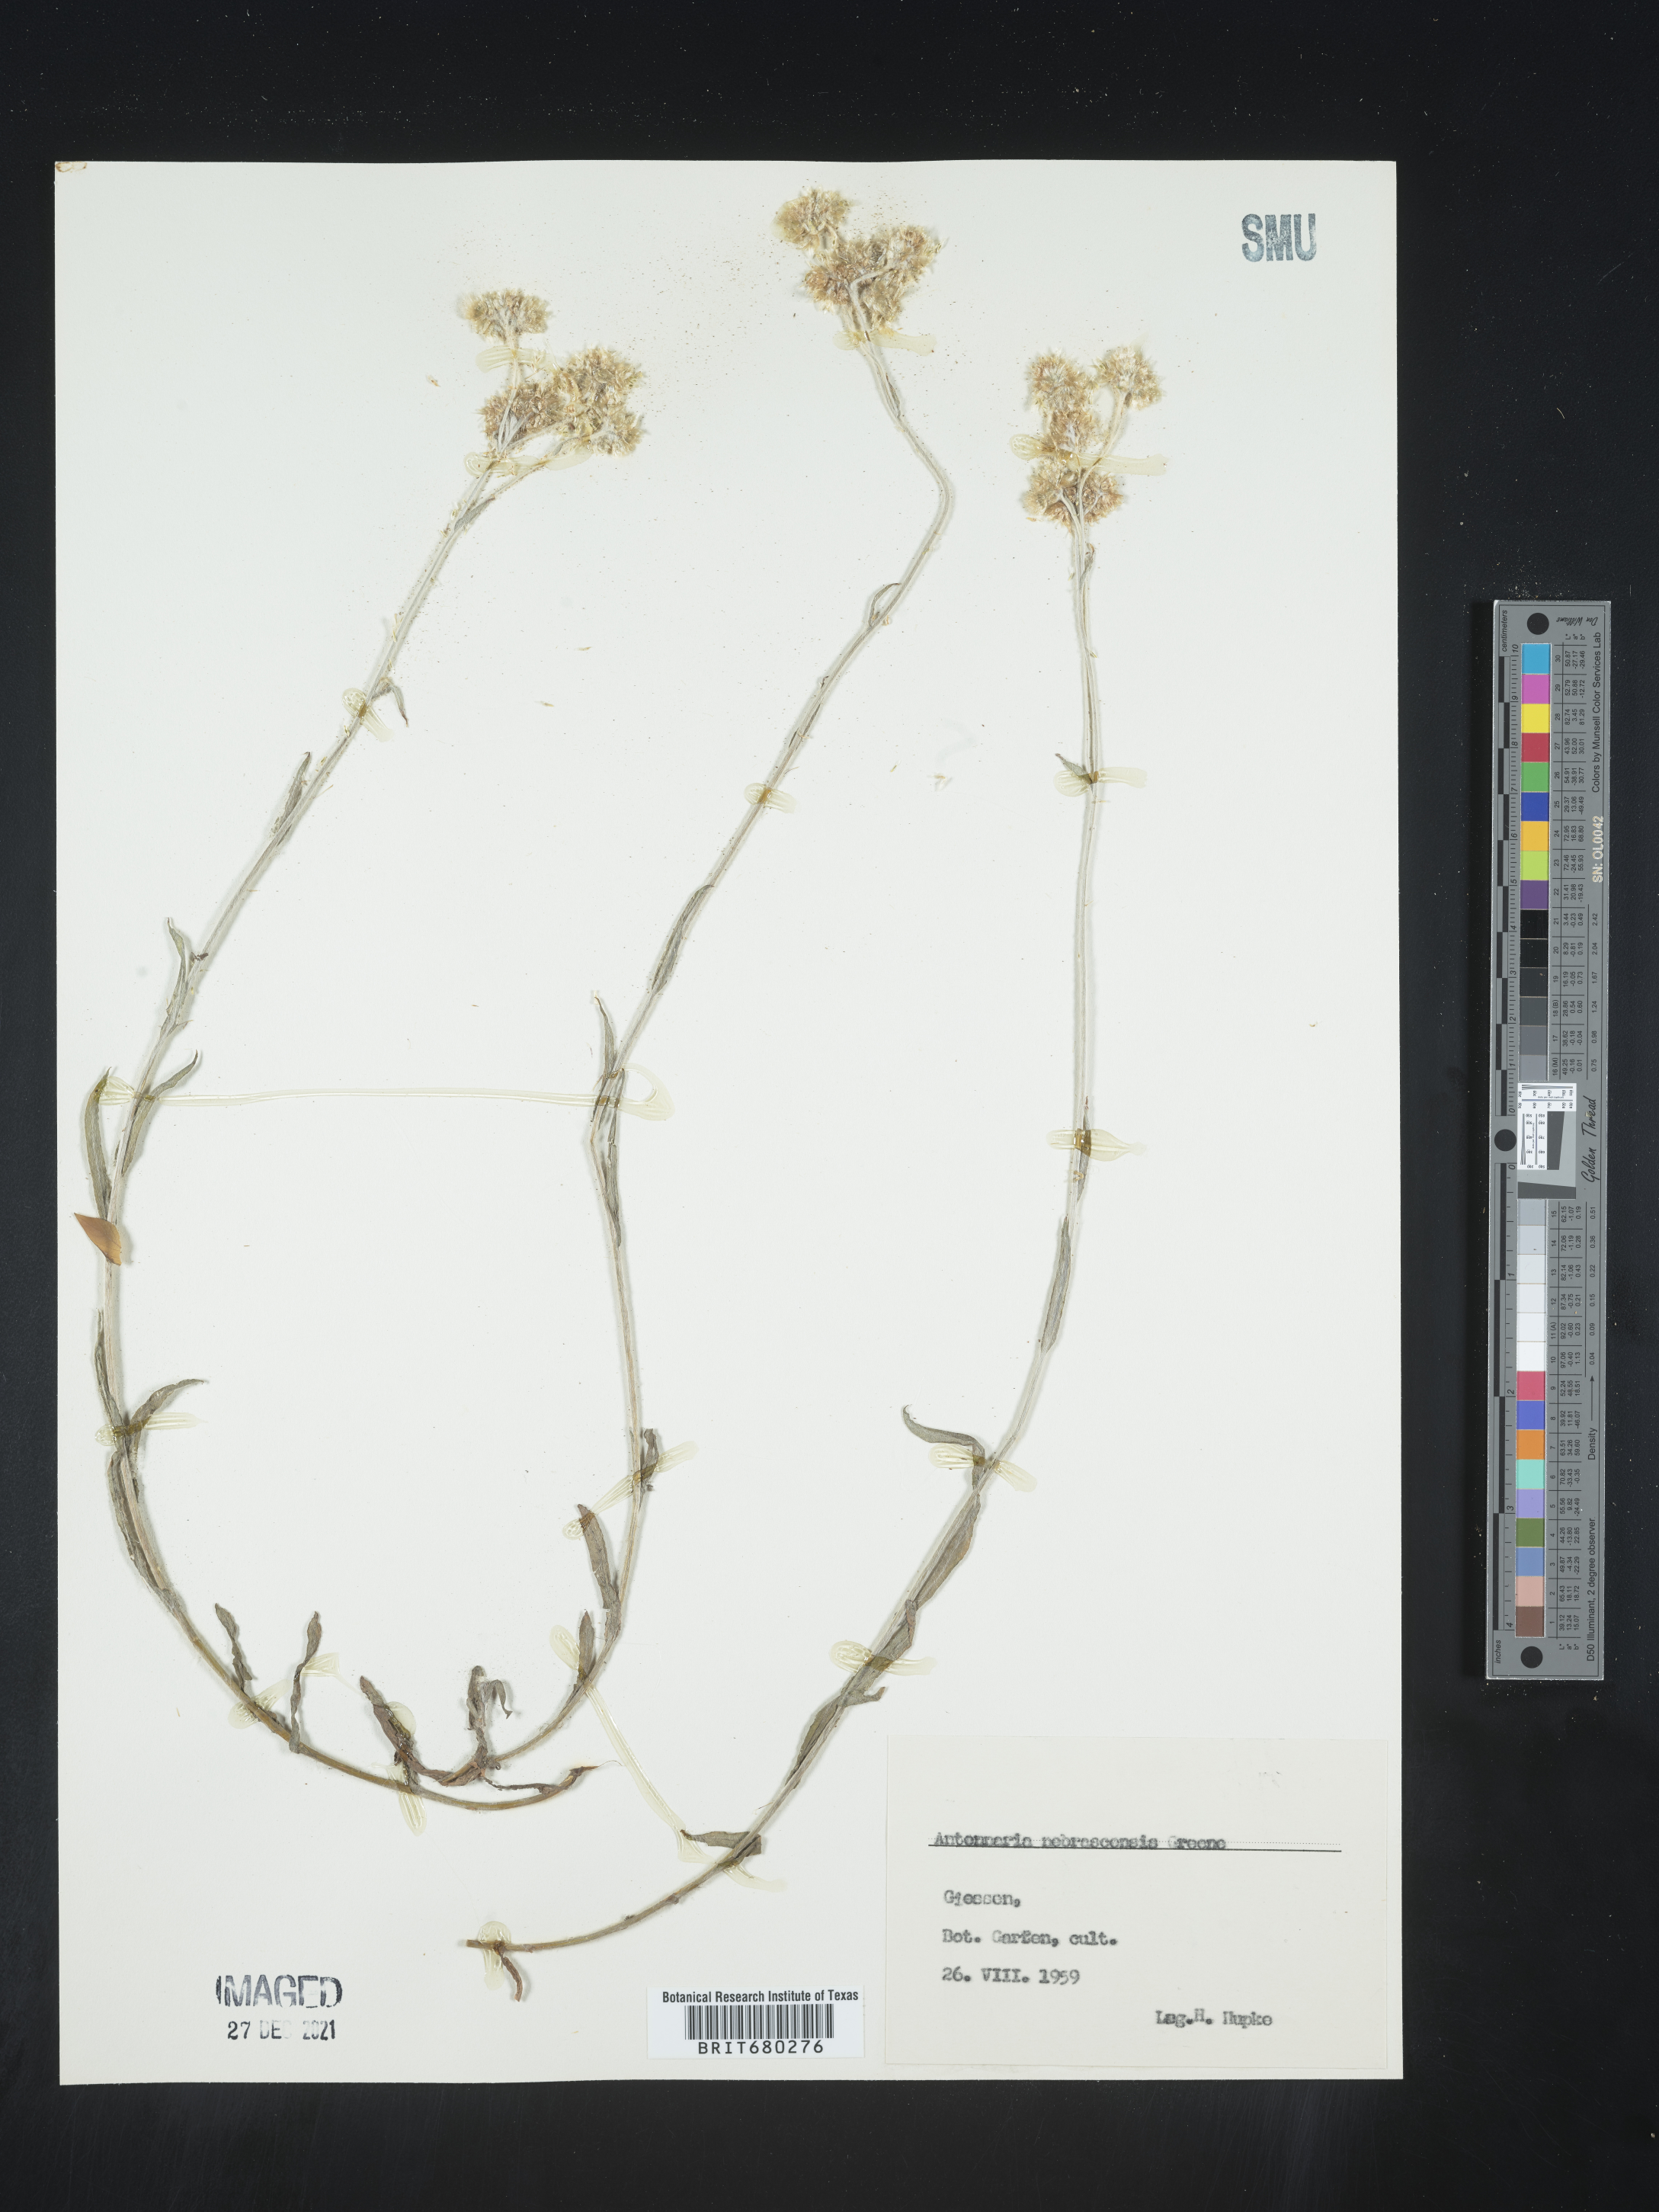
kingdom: Plantae
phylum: Tracheophyta
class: Magnoliopsida
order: Asterales
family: Asteraceae
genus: Antennaria
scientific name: Antennaria
